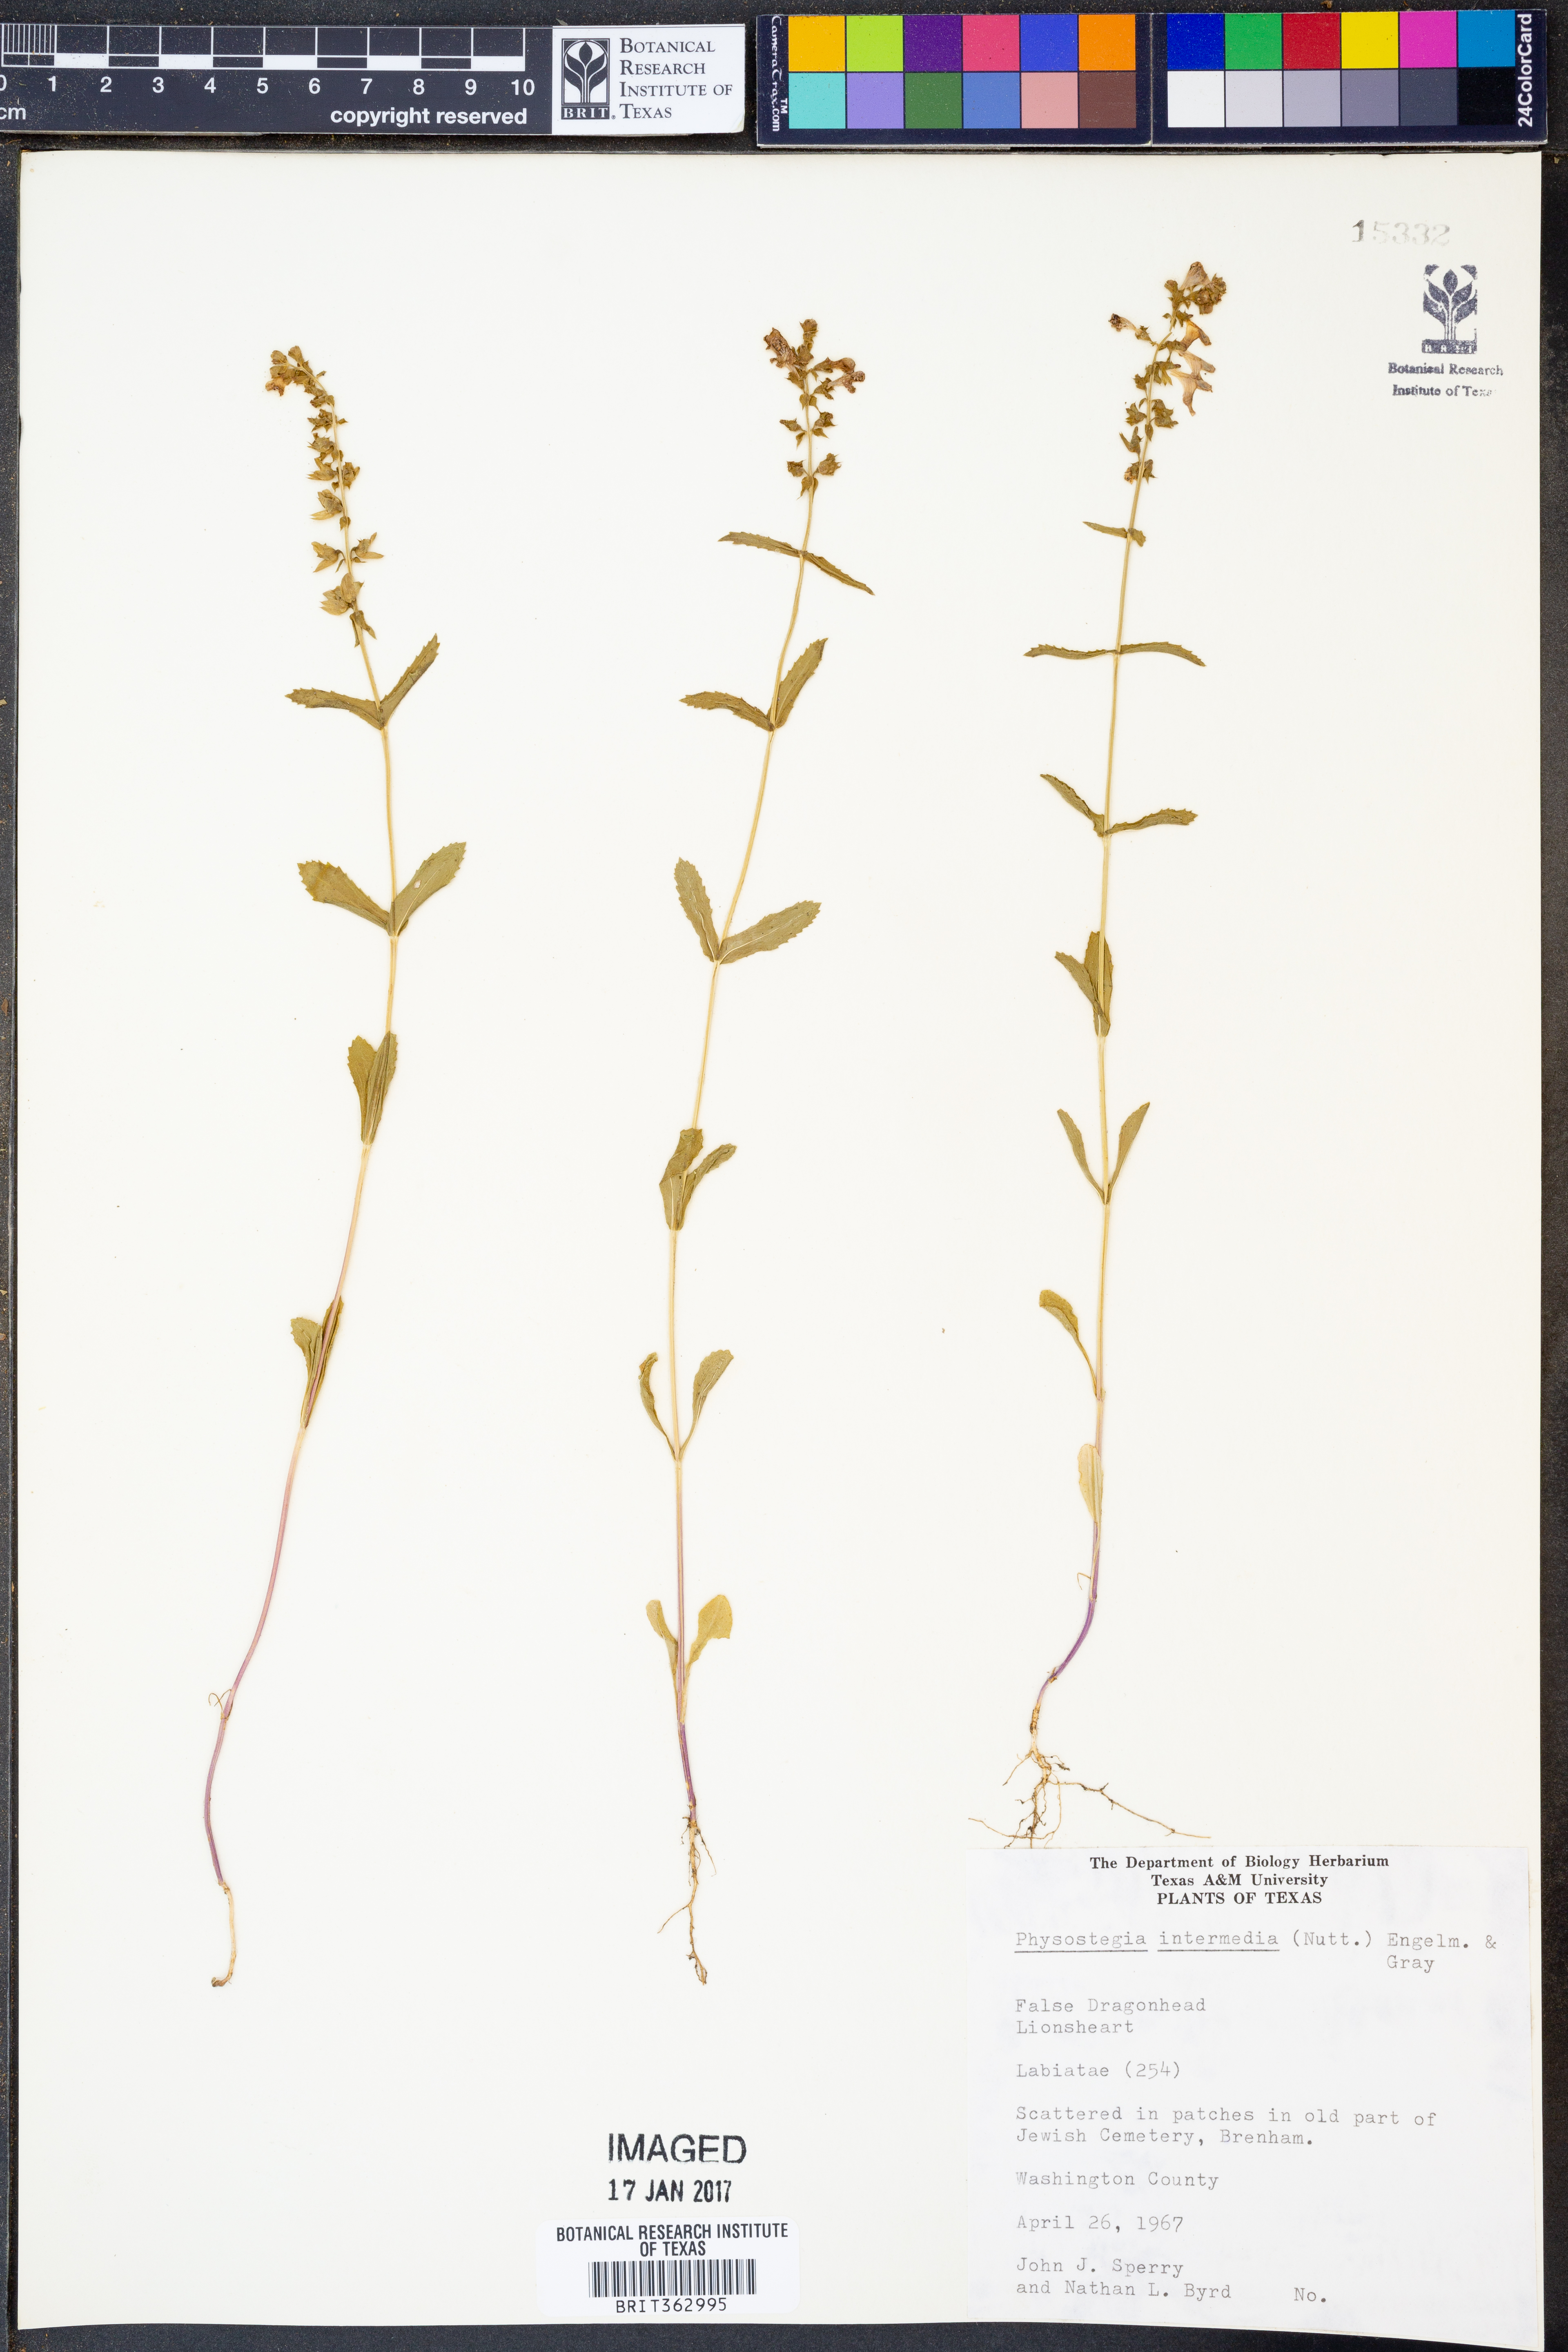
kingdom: Plantae
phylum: Tracheophyta
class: Magnoliopsida
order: Lamiales
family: Lamiaceae
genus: Physostegia
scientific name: Physostegia intermedia
